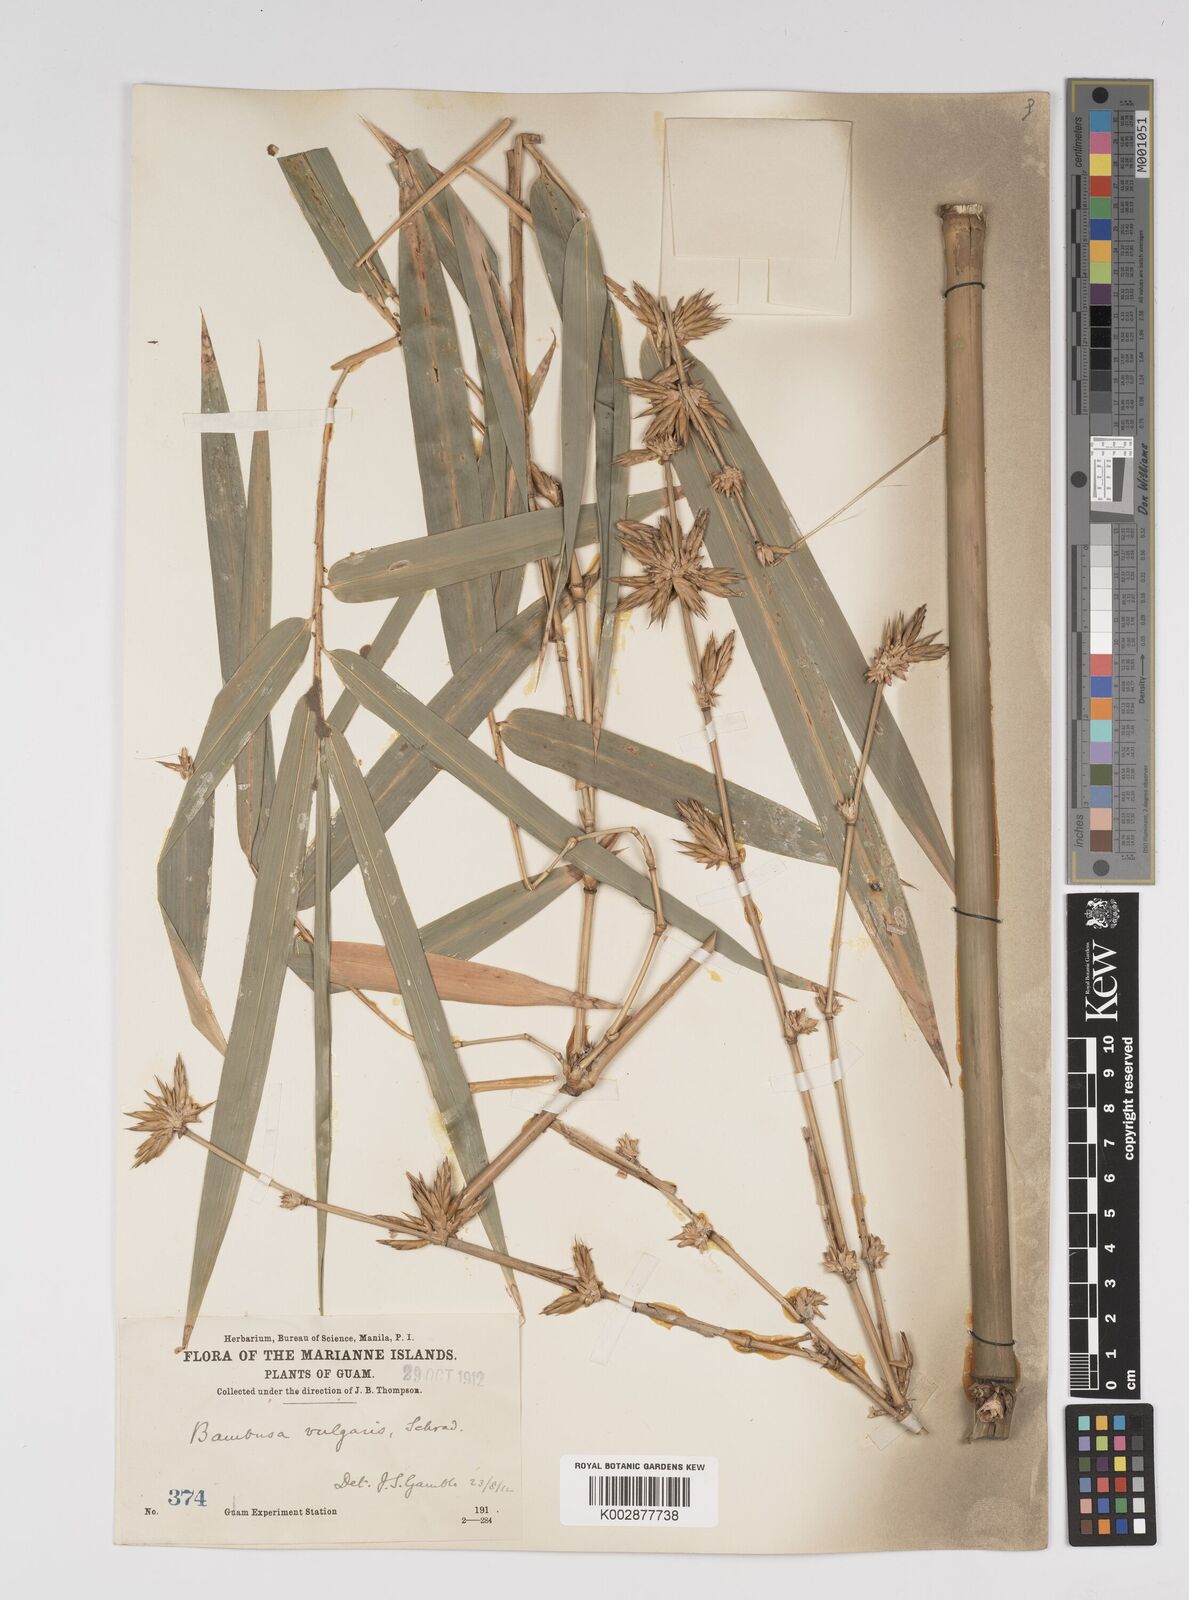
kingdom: Plantae
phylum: Tracheophyta
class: Liliopsida
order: Poales
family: Poaceae
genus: Bambusa
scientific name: Bambusa vulgaris
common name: Common bamboo
